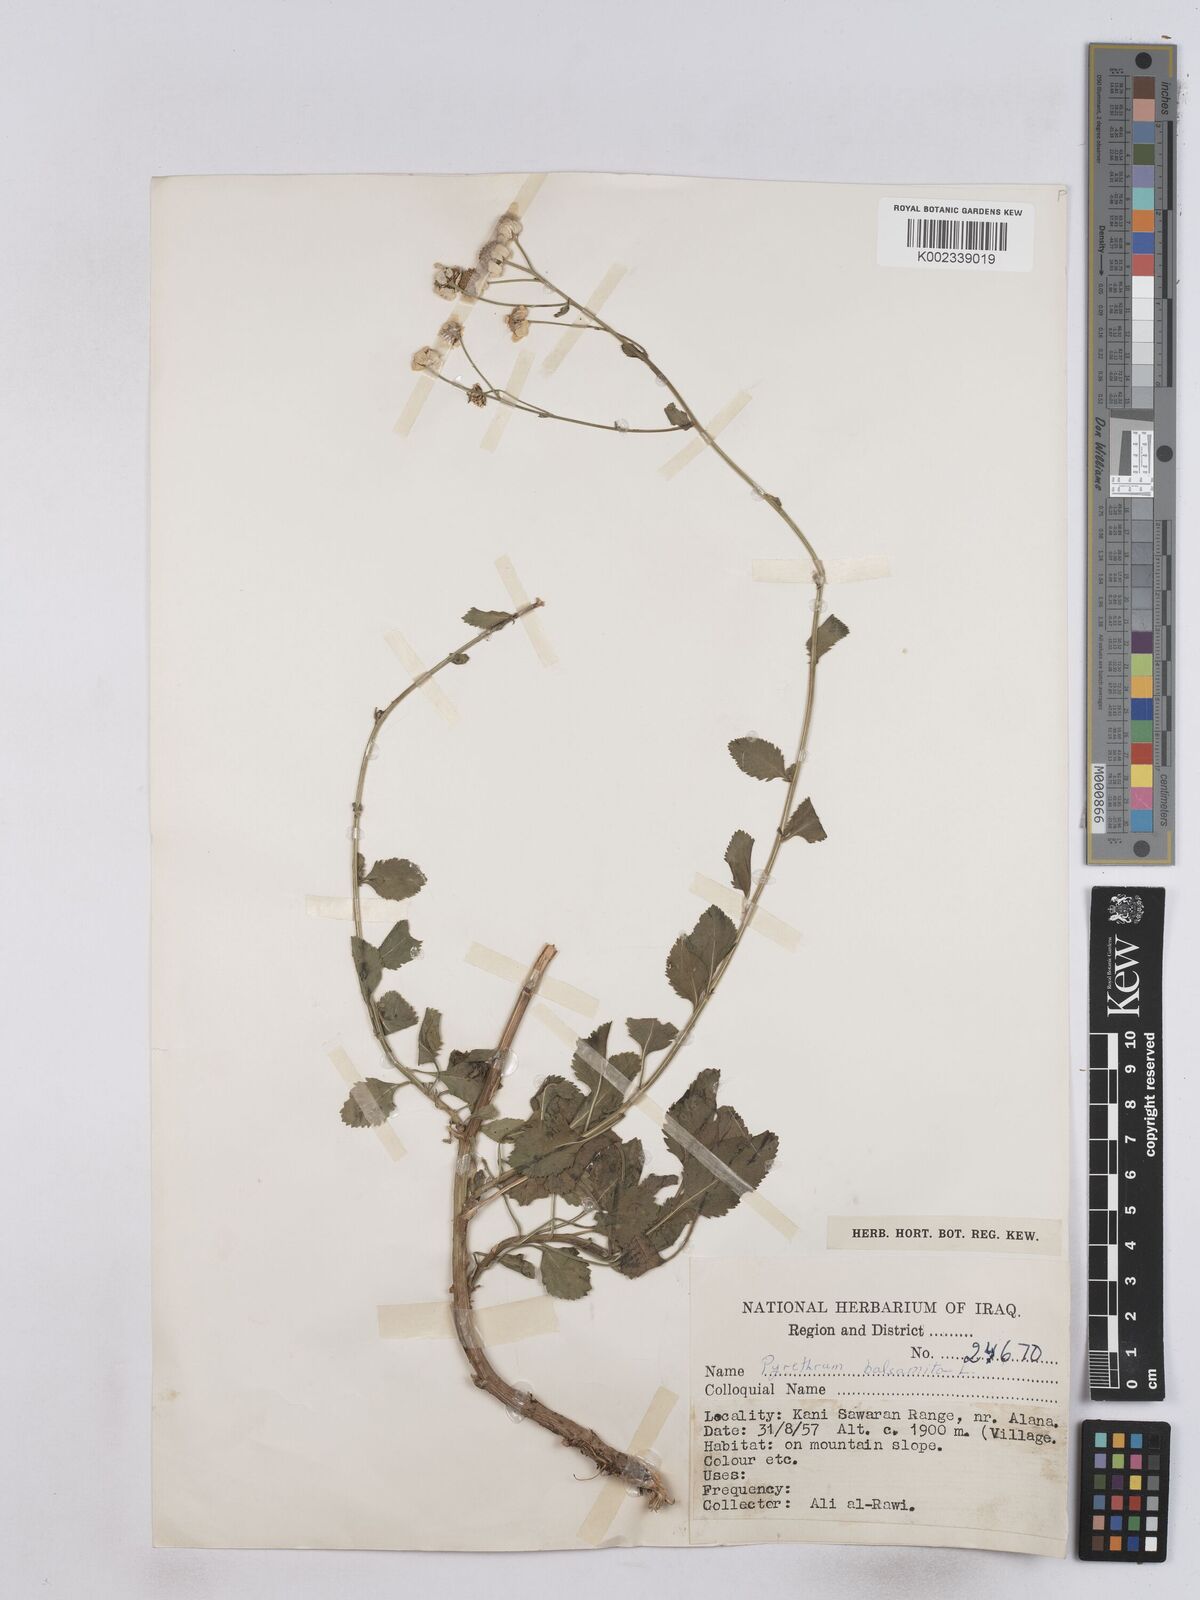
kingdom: Plantae
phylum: Tracheophyta
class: Magnoliopsida
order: Asterales
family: Asteraceae
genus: Tanacetum
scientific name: Tanacetum balsamitoides
